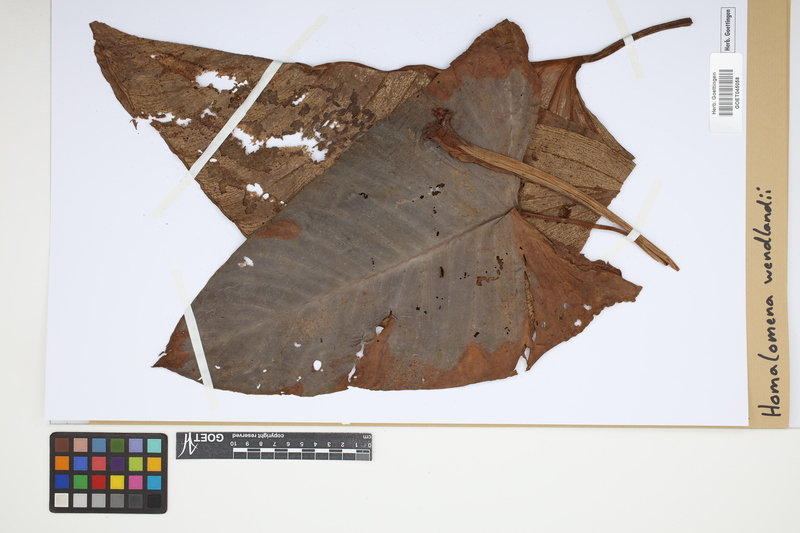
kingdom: Plantae
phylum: Tracheophyta
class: Liliopsida
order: Alismatales
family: Araceae
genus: Adelonema
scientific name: Adelonema wendlandii
